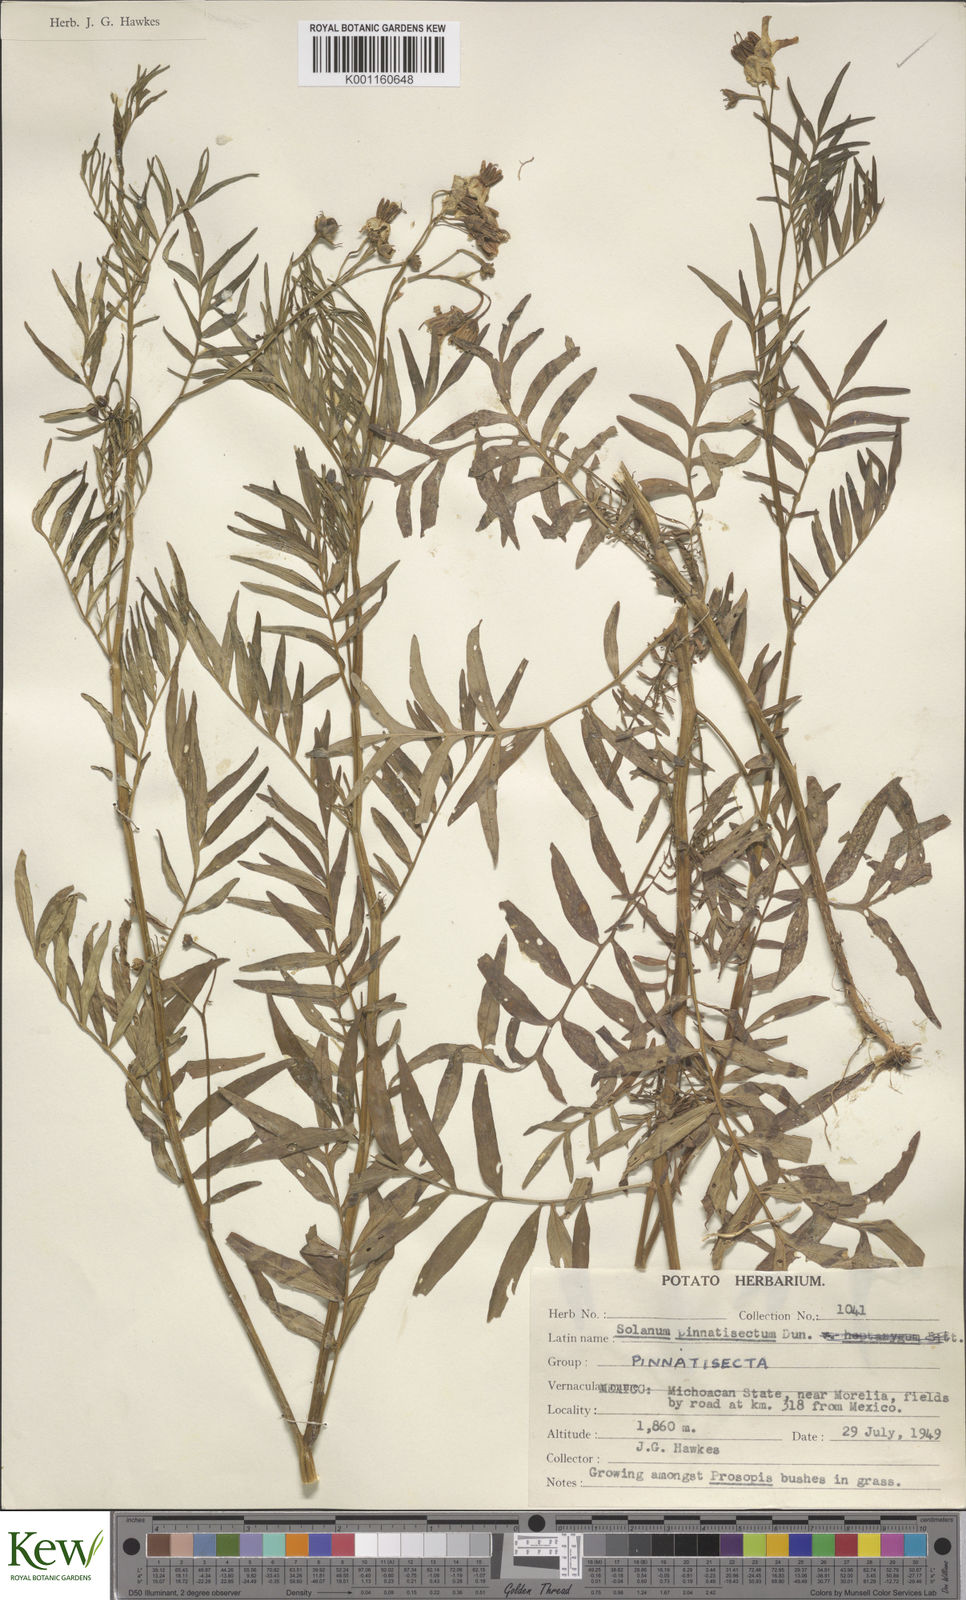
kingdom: Plantae
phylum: Tracheophyta
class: Magnoliopsida
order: Solanales
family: Solanaceae
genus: Solanum
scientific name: Solanum pinnatisectum
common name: Tansyleaf nightshade
